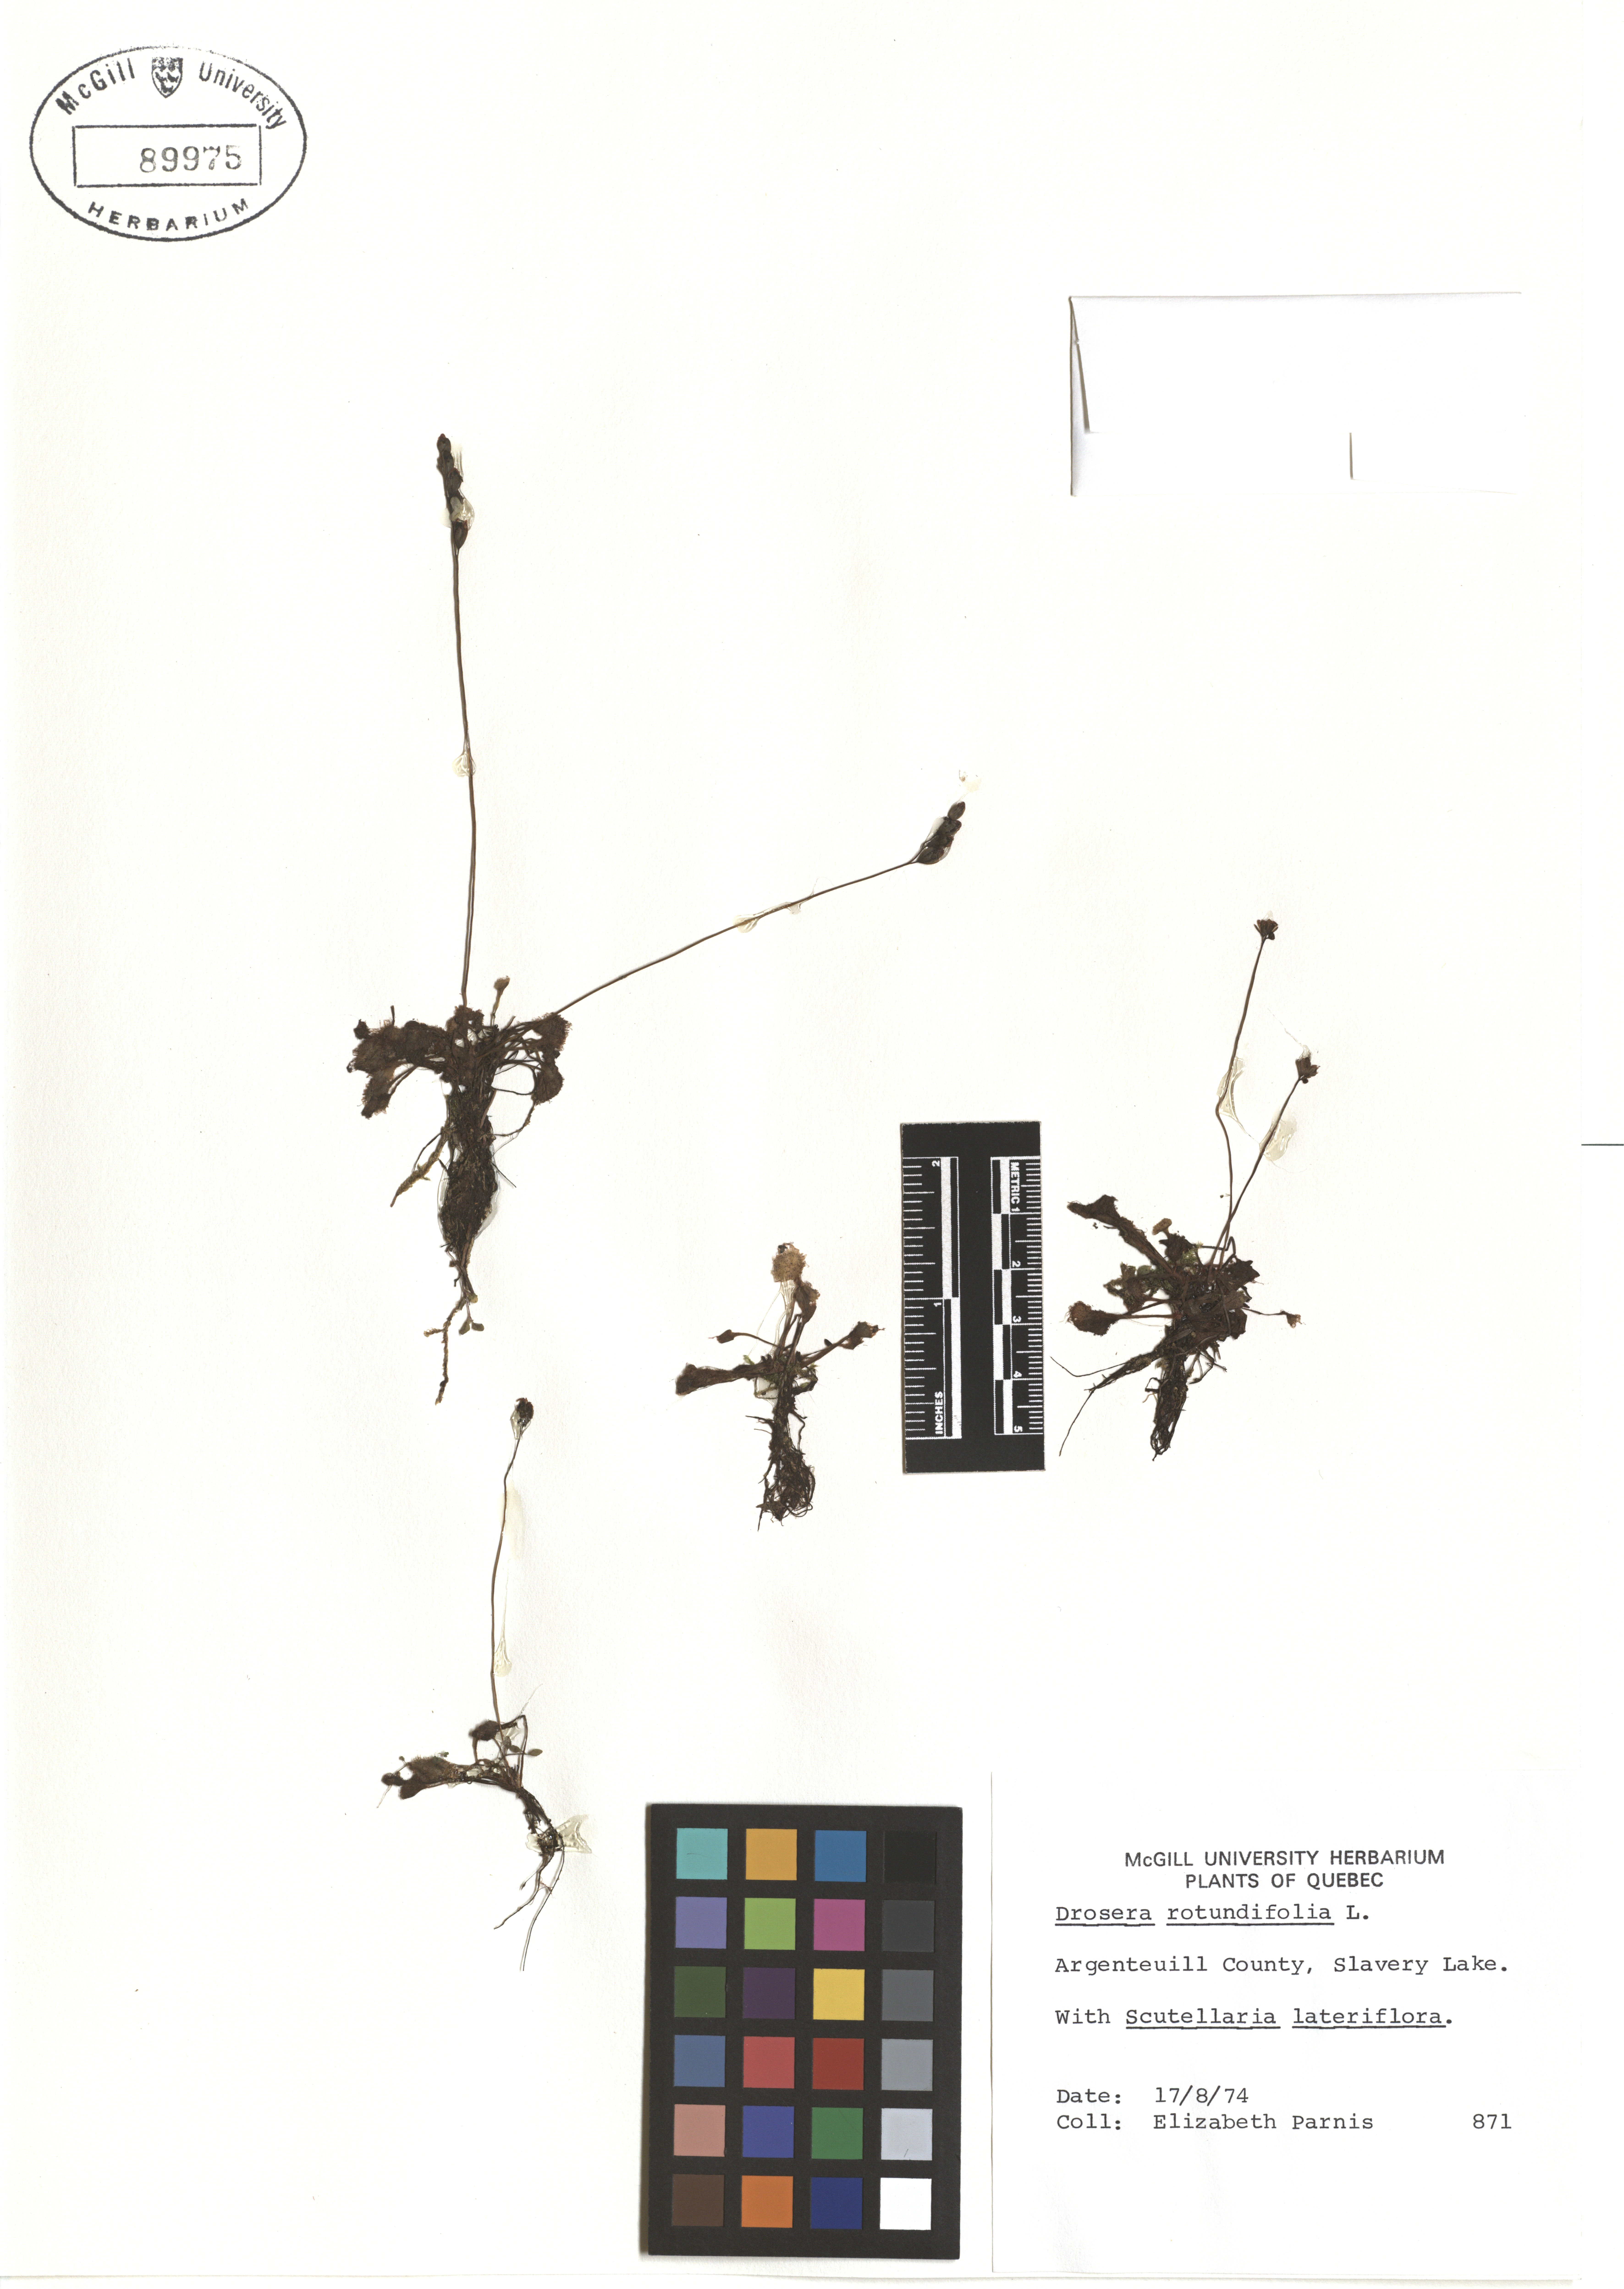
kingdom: Plantae
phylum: Tracheophyta
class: Magnoliopsida
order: Caryophyllales
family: Droseraceae
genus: Drosera
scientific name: Drosera rotundifolia
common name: Round-leaved sundew
